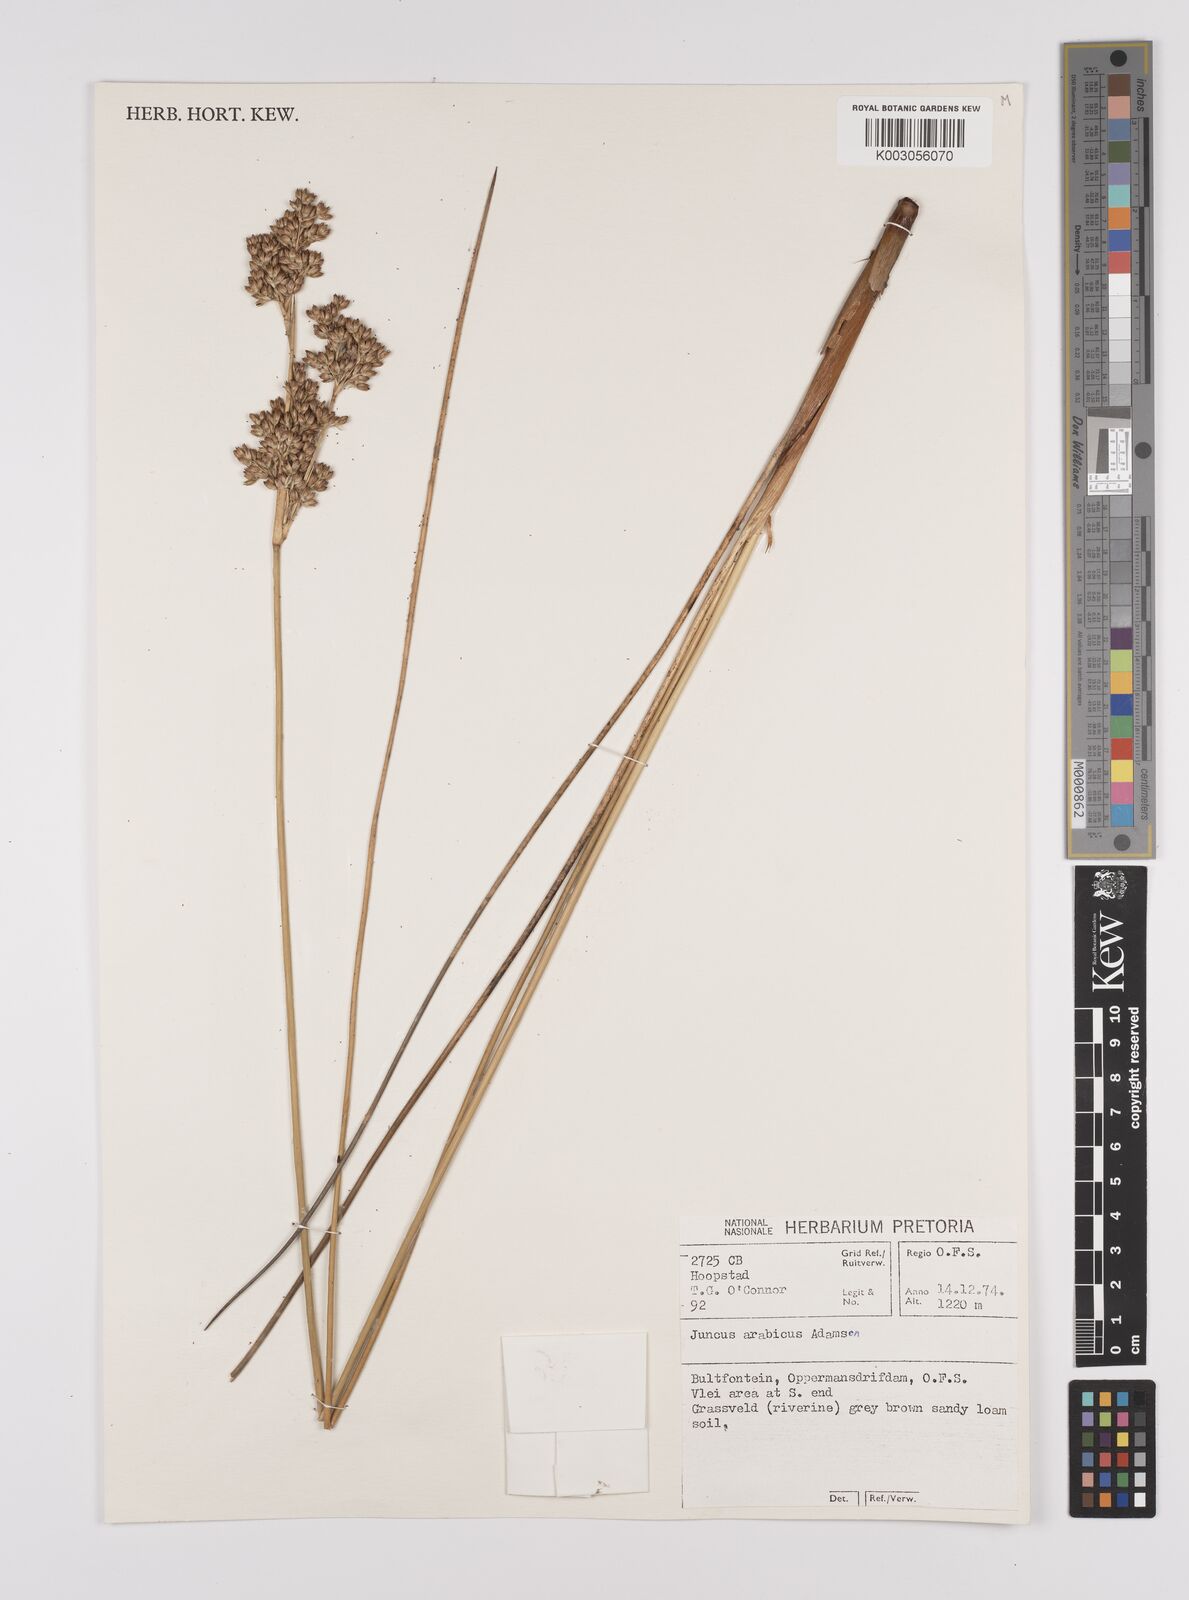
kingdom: Plantae
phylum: Tracheophyta
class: Liliopsida
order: Poales
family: Juncaceae
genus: Juncus
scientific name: Juncus rigidus
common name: Hard sea rush
